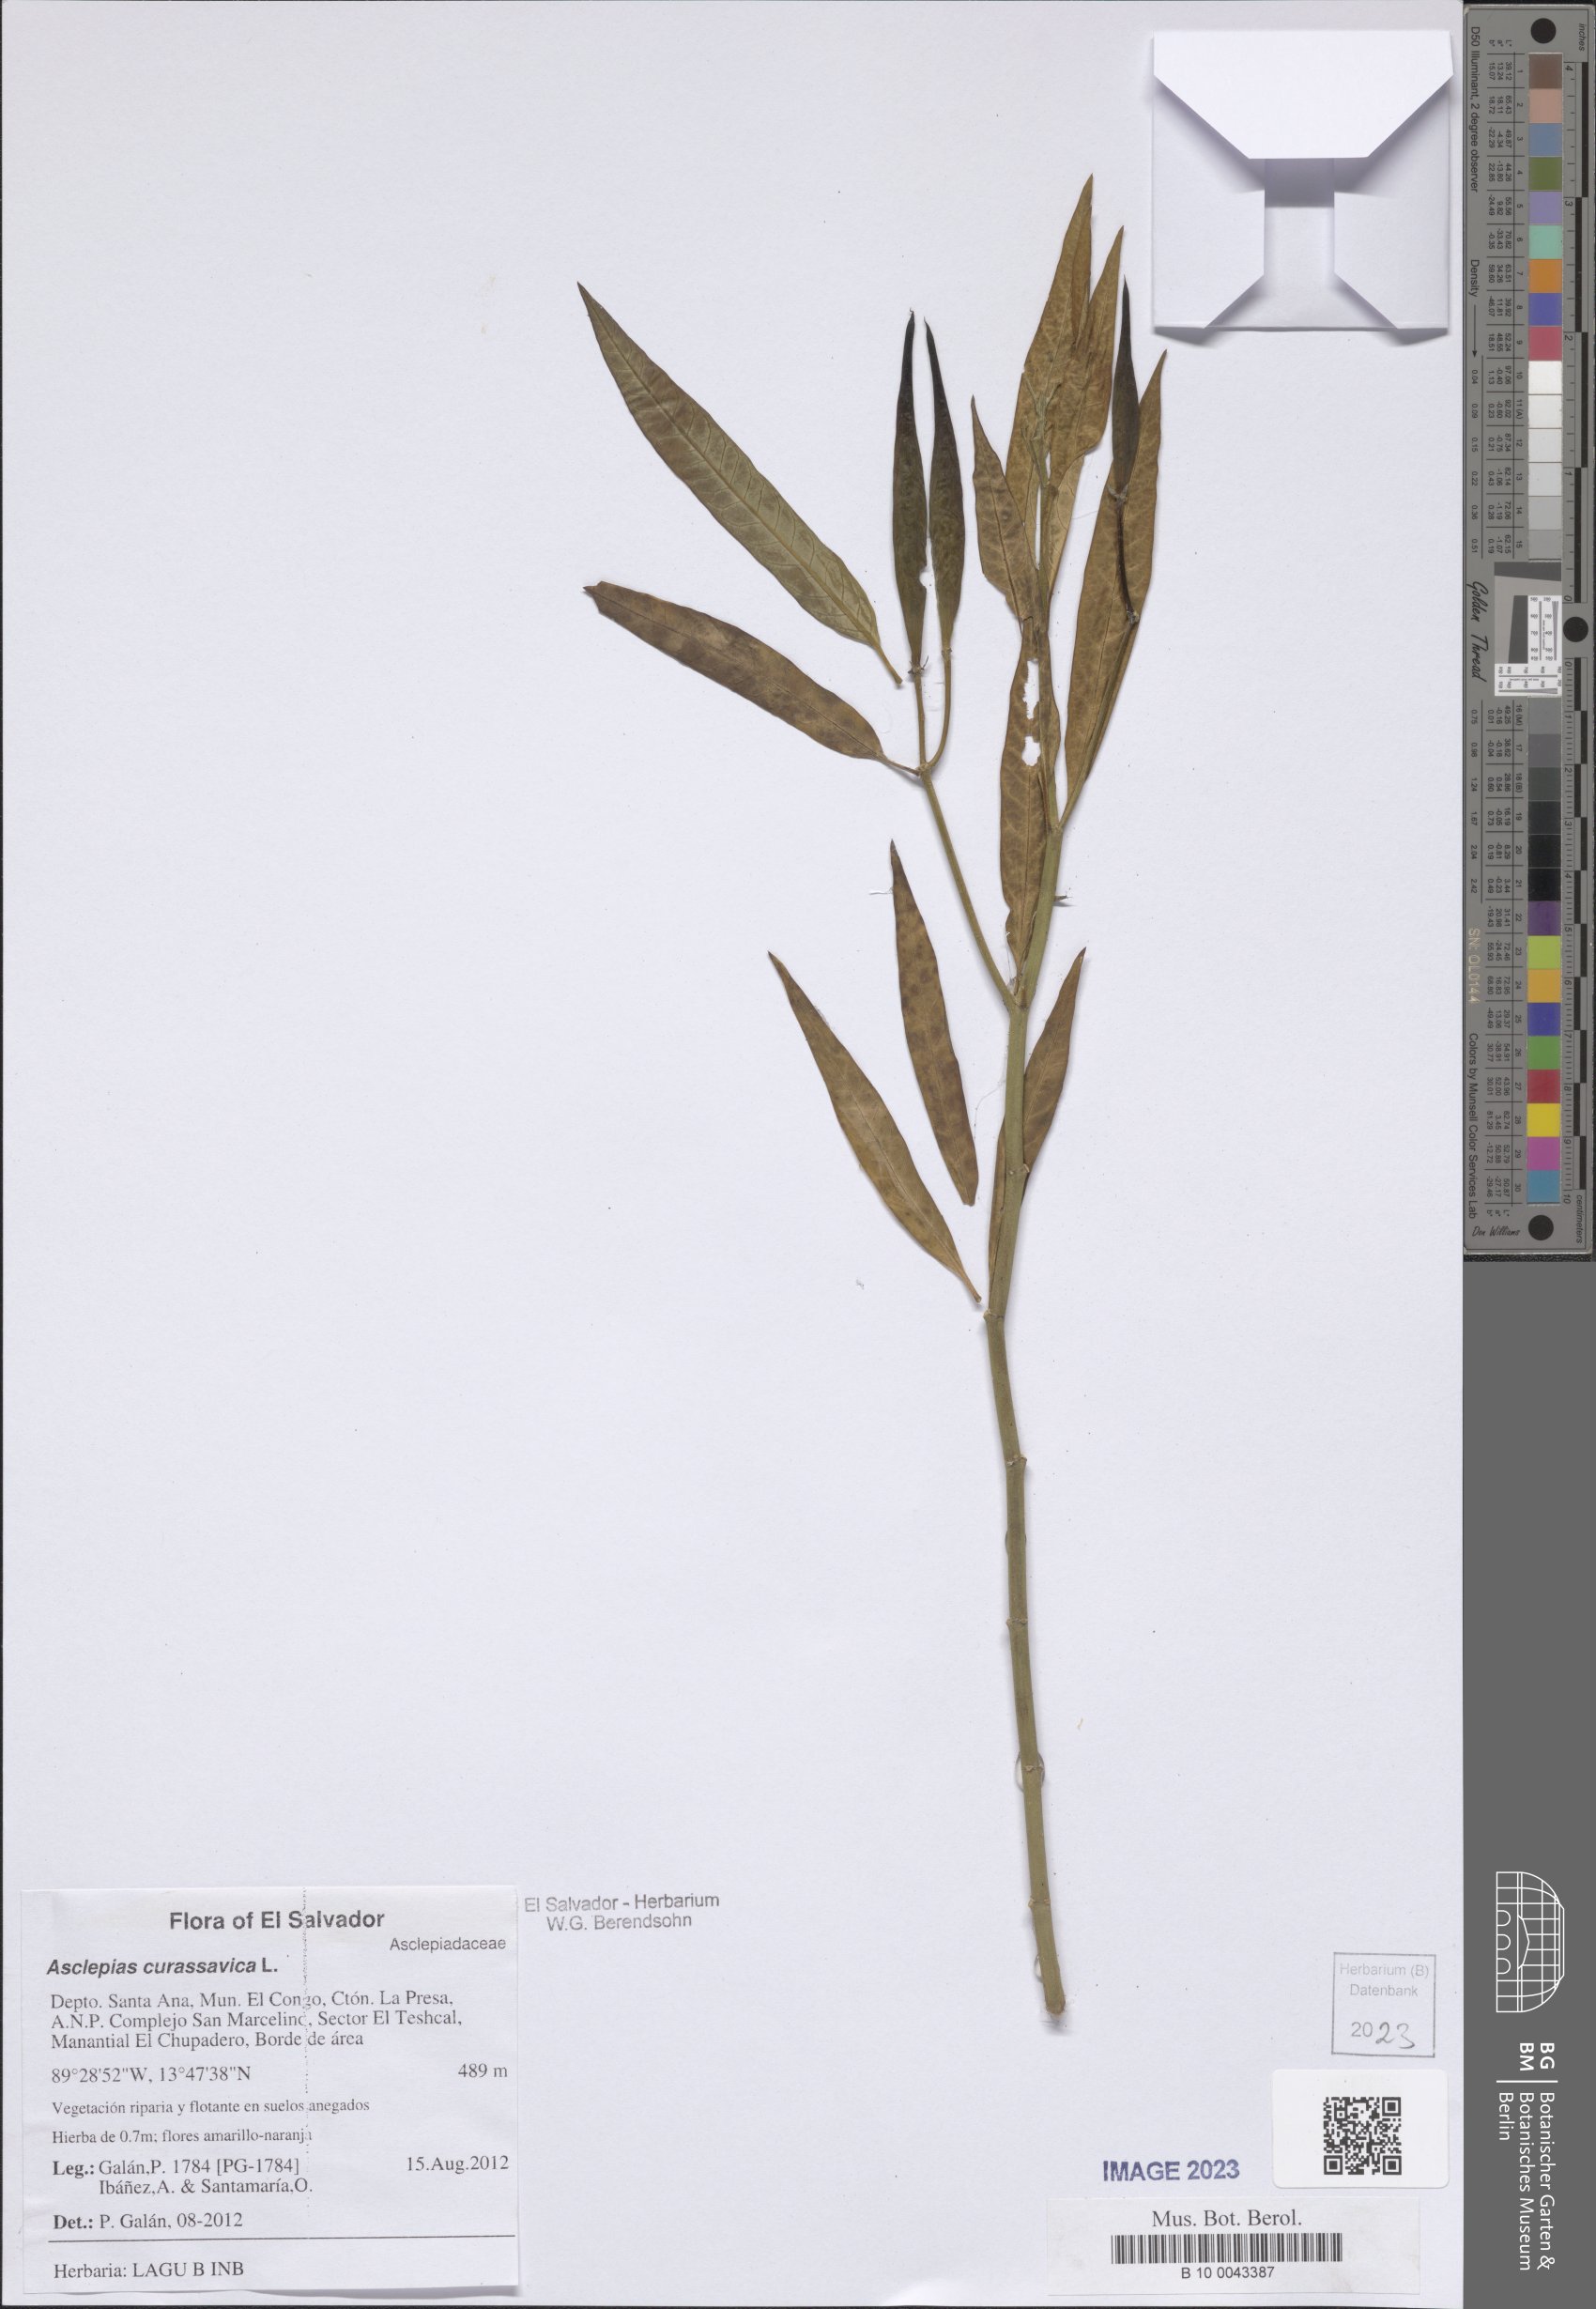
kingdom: Plantae
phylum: Tracheophyta
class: Magnoliopsida
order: Gentianales
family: Apocynaceae
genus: Asclepias
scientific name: Asclepias curassavica
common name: Bloodflower
